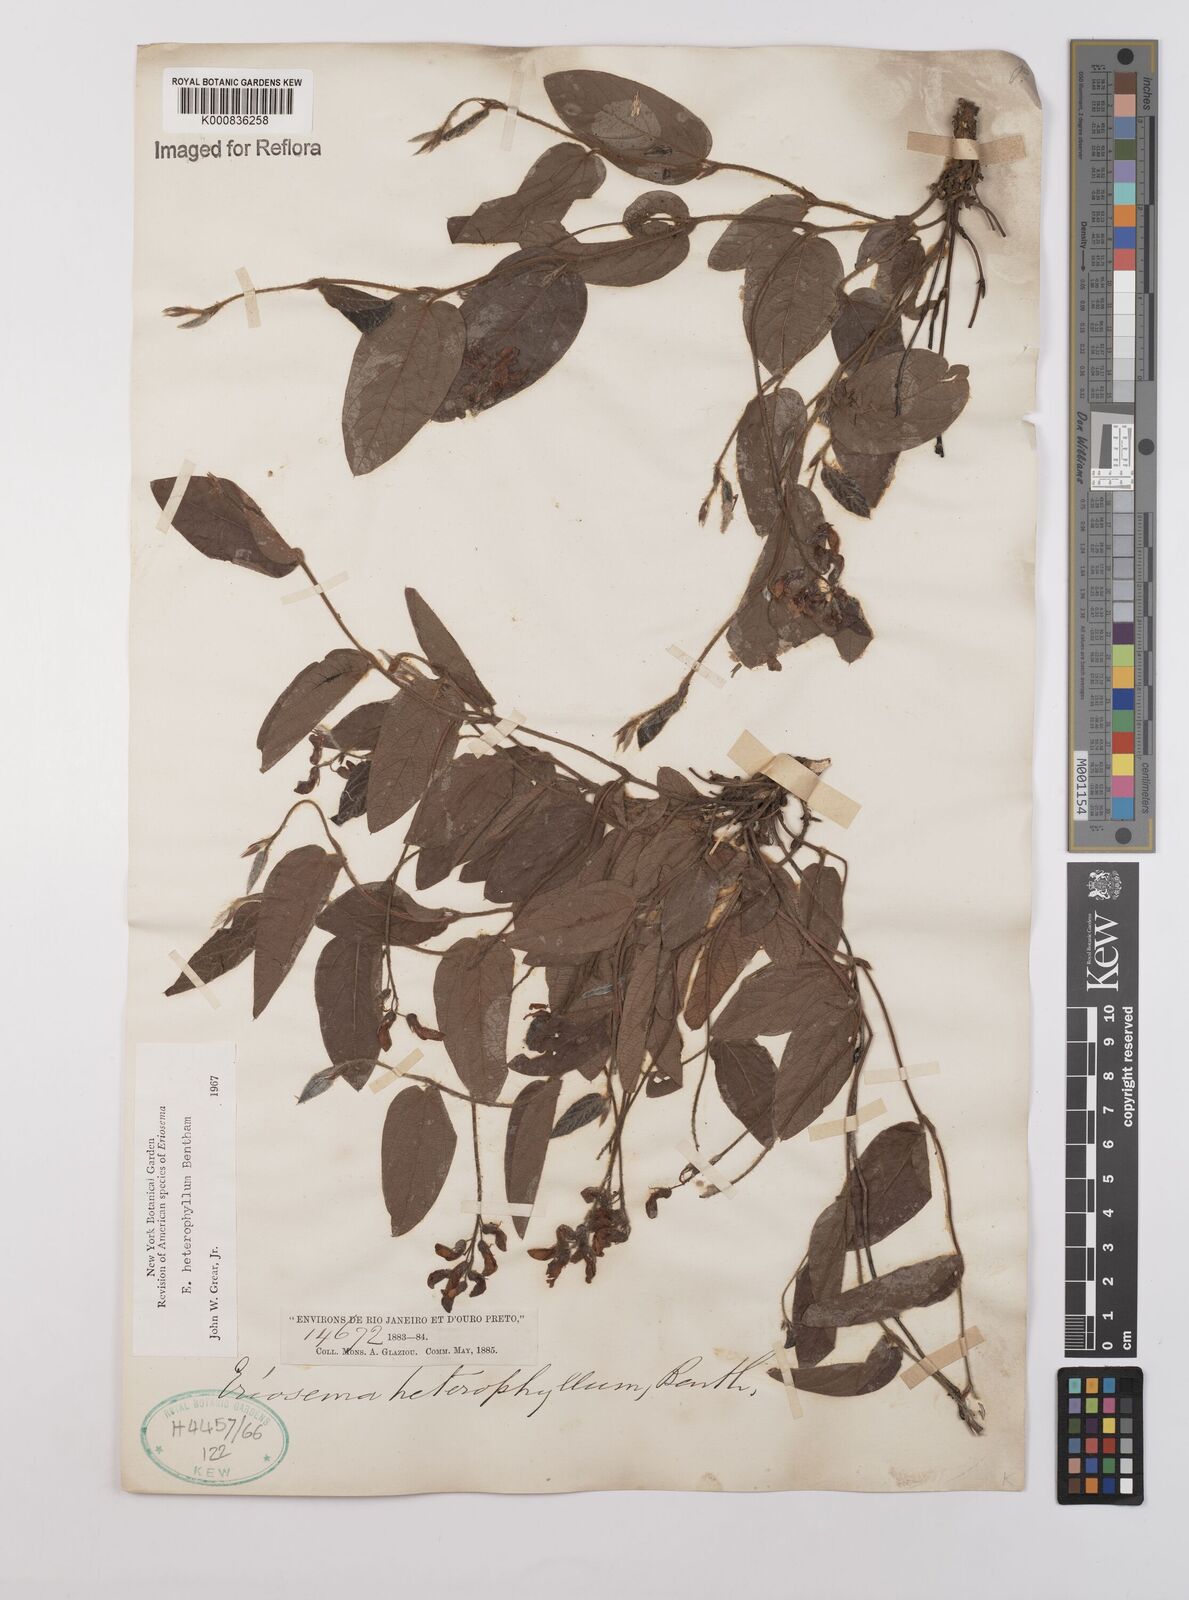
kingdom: Plantae
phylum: Tracheophyta
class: Magnoliopsida
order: Fabales
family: Fabaceae
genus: Eriosema
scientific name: Eriosema heterophyllum
